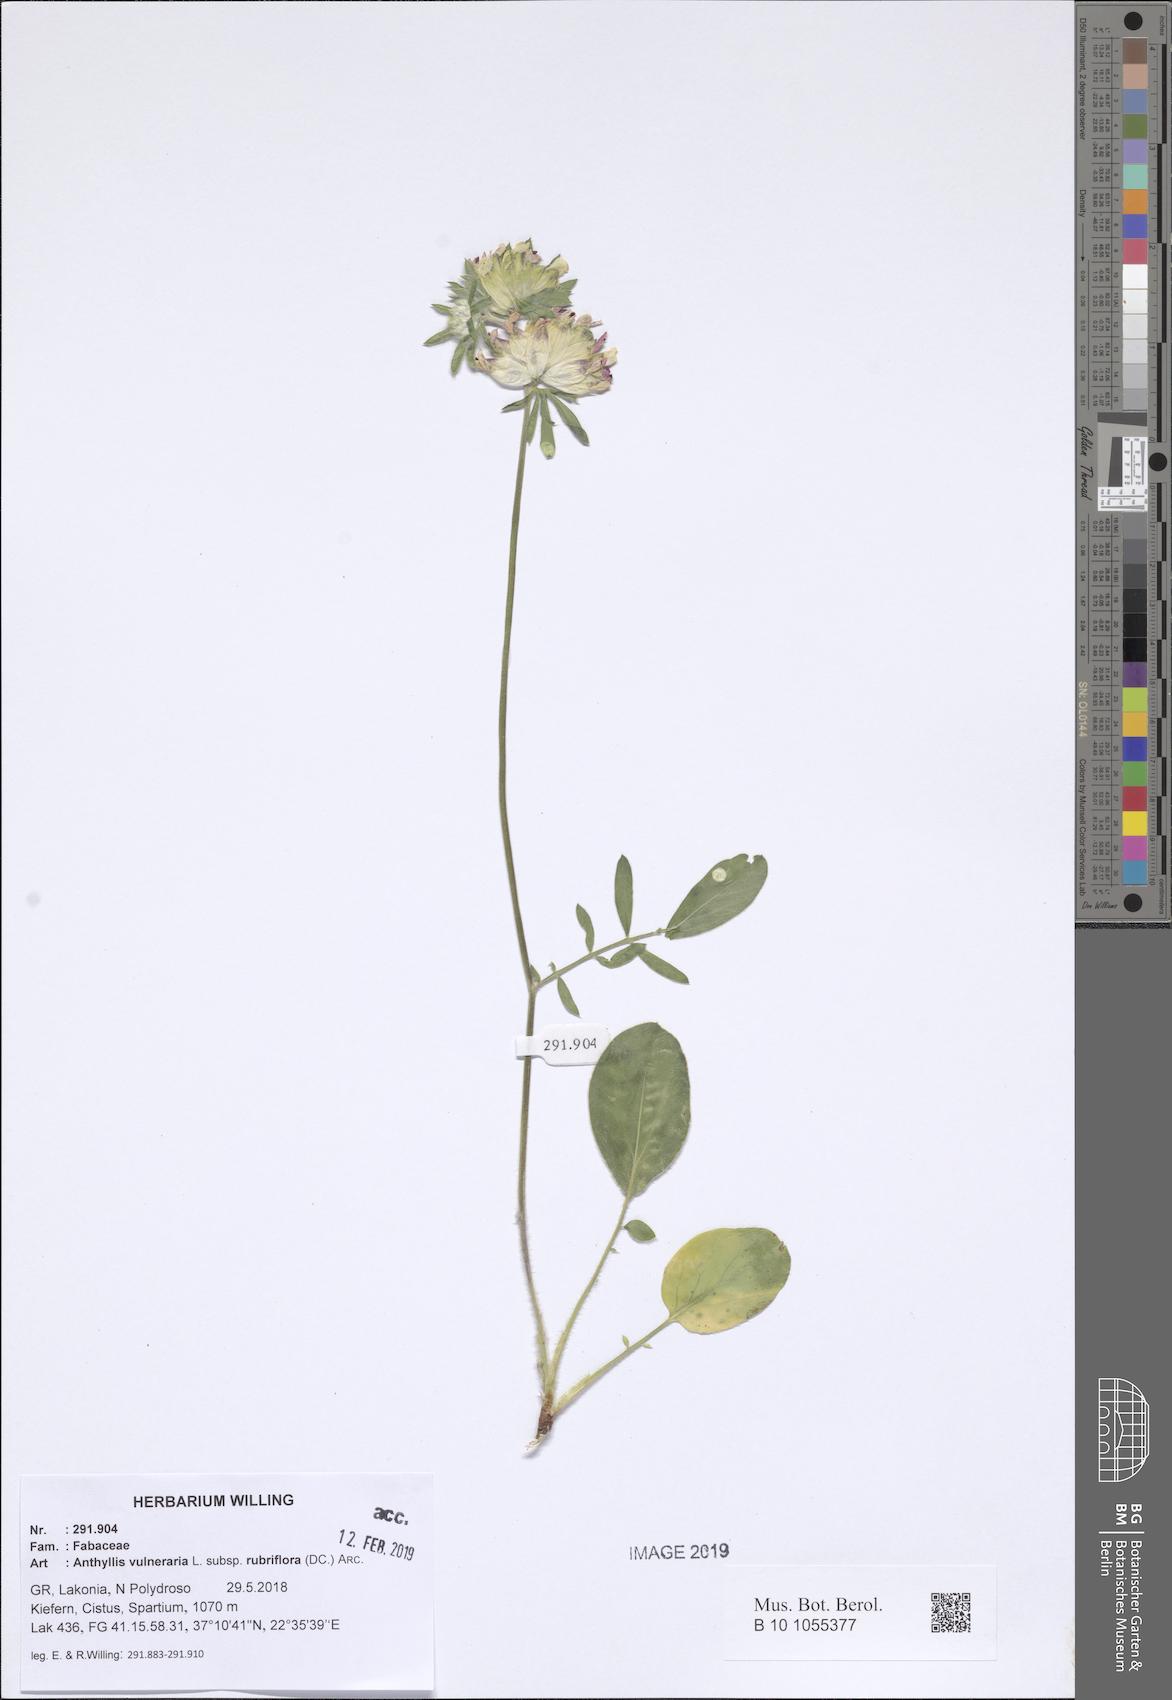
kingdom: Plantae
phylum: Tracheophyta
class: Magnoliopsida
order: Fabales
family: Fabaceae
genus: Anthyllis
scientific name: Anthyllis vulneraria
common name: Kidney vetch
